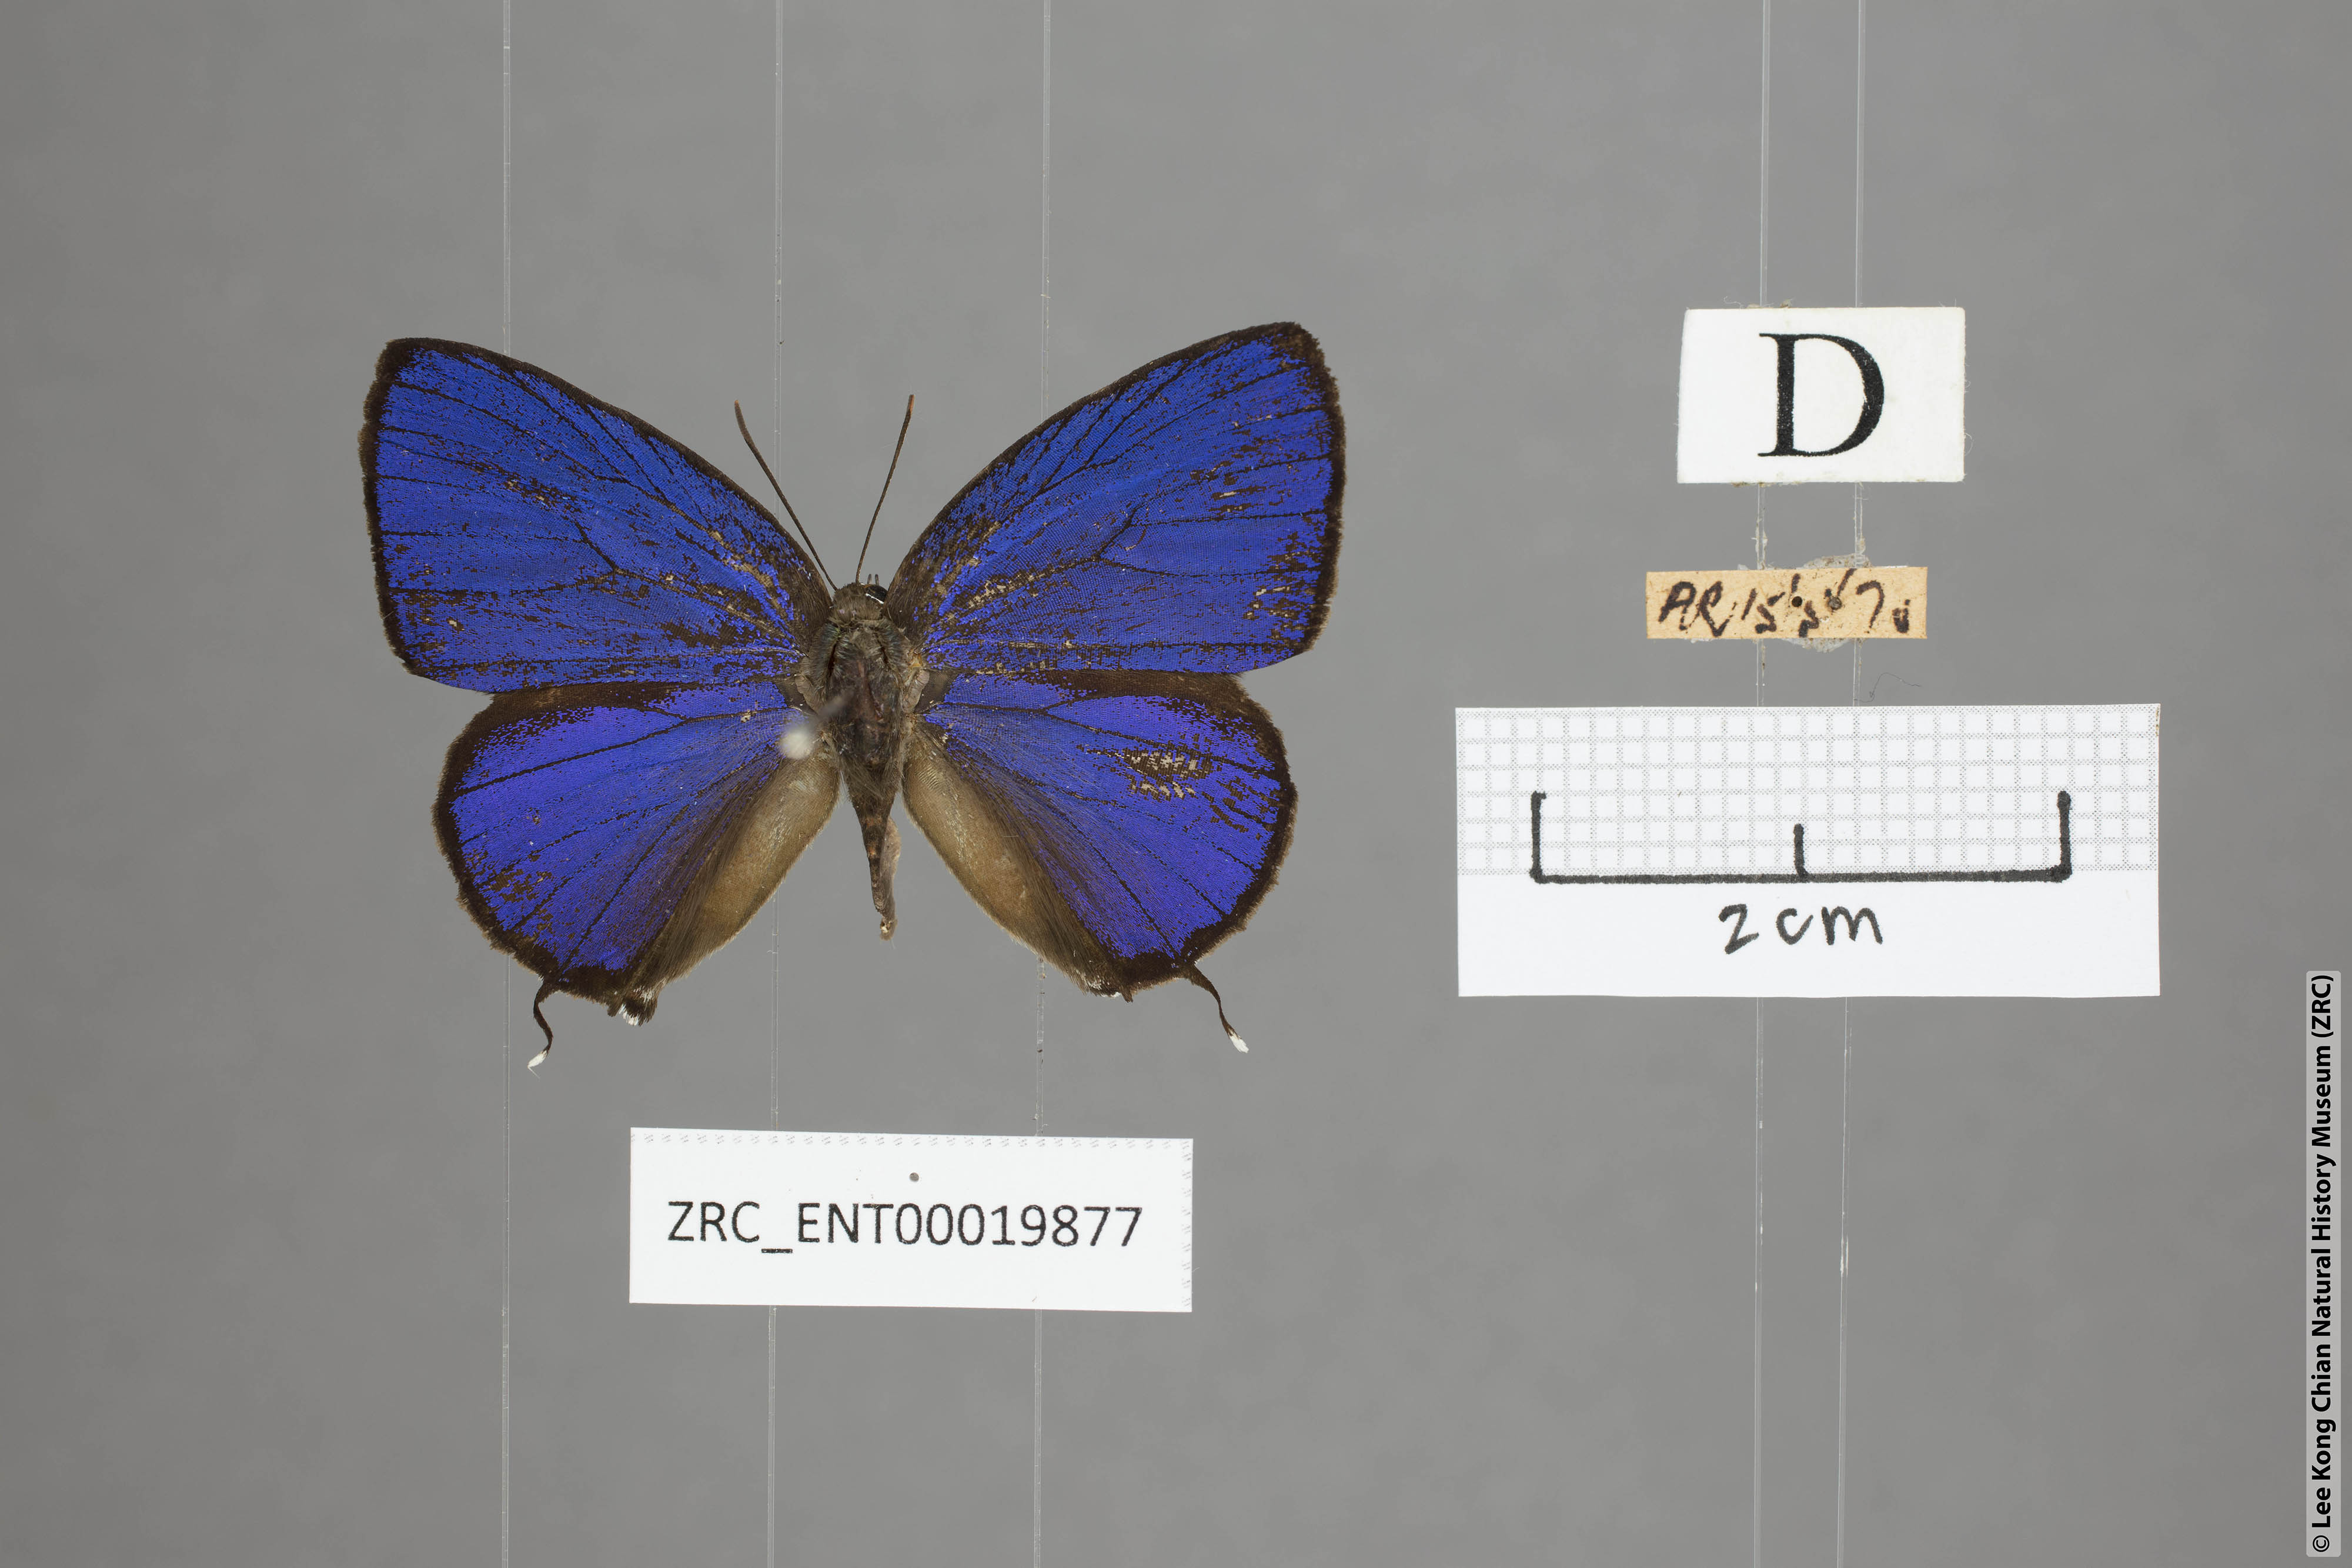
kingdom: Animalia
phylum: Arthropoda
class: Insecta
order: Lepidoptera
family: Lycaenidae
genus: Arhopala
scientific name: Arhopala sublustris
